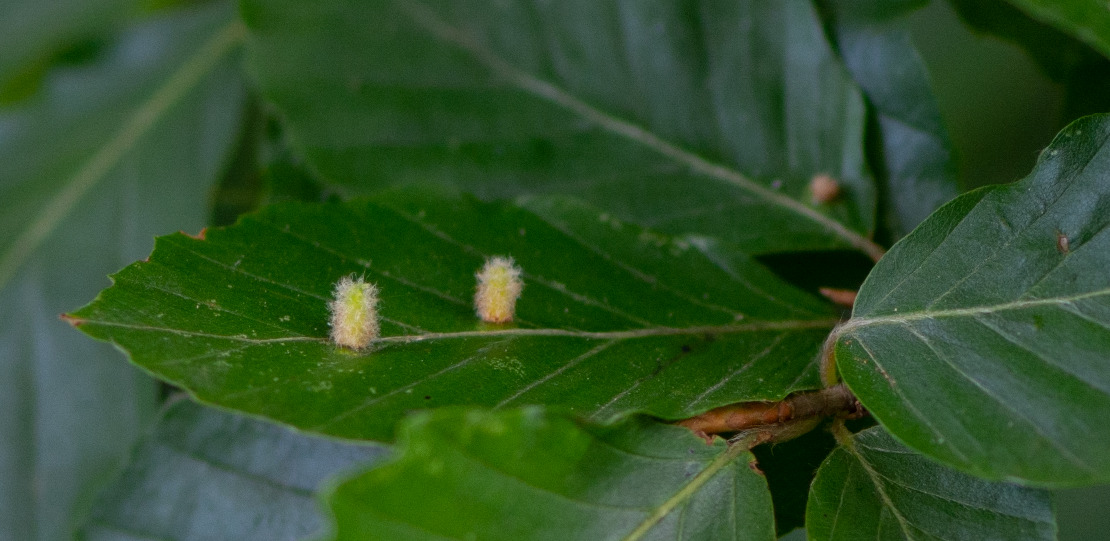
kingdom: Animalia
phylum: Arthropoda
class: Insecta
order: Diptera
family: Cecidomyiidae
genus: Hartigiola
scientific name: Hartigiola annulipes
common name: Skovtroldegalmyg
